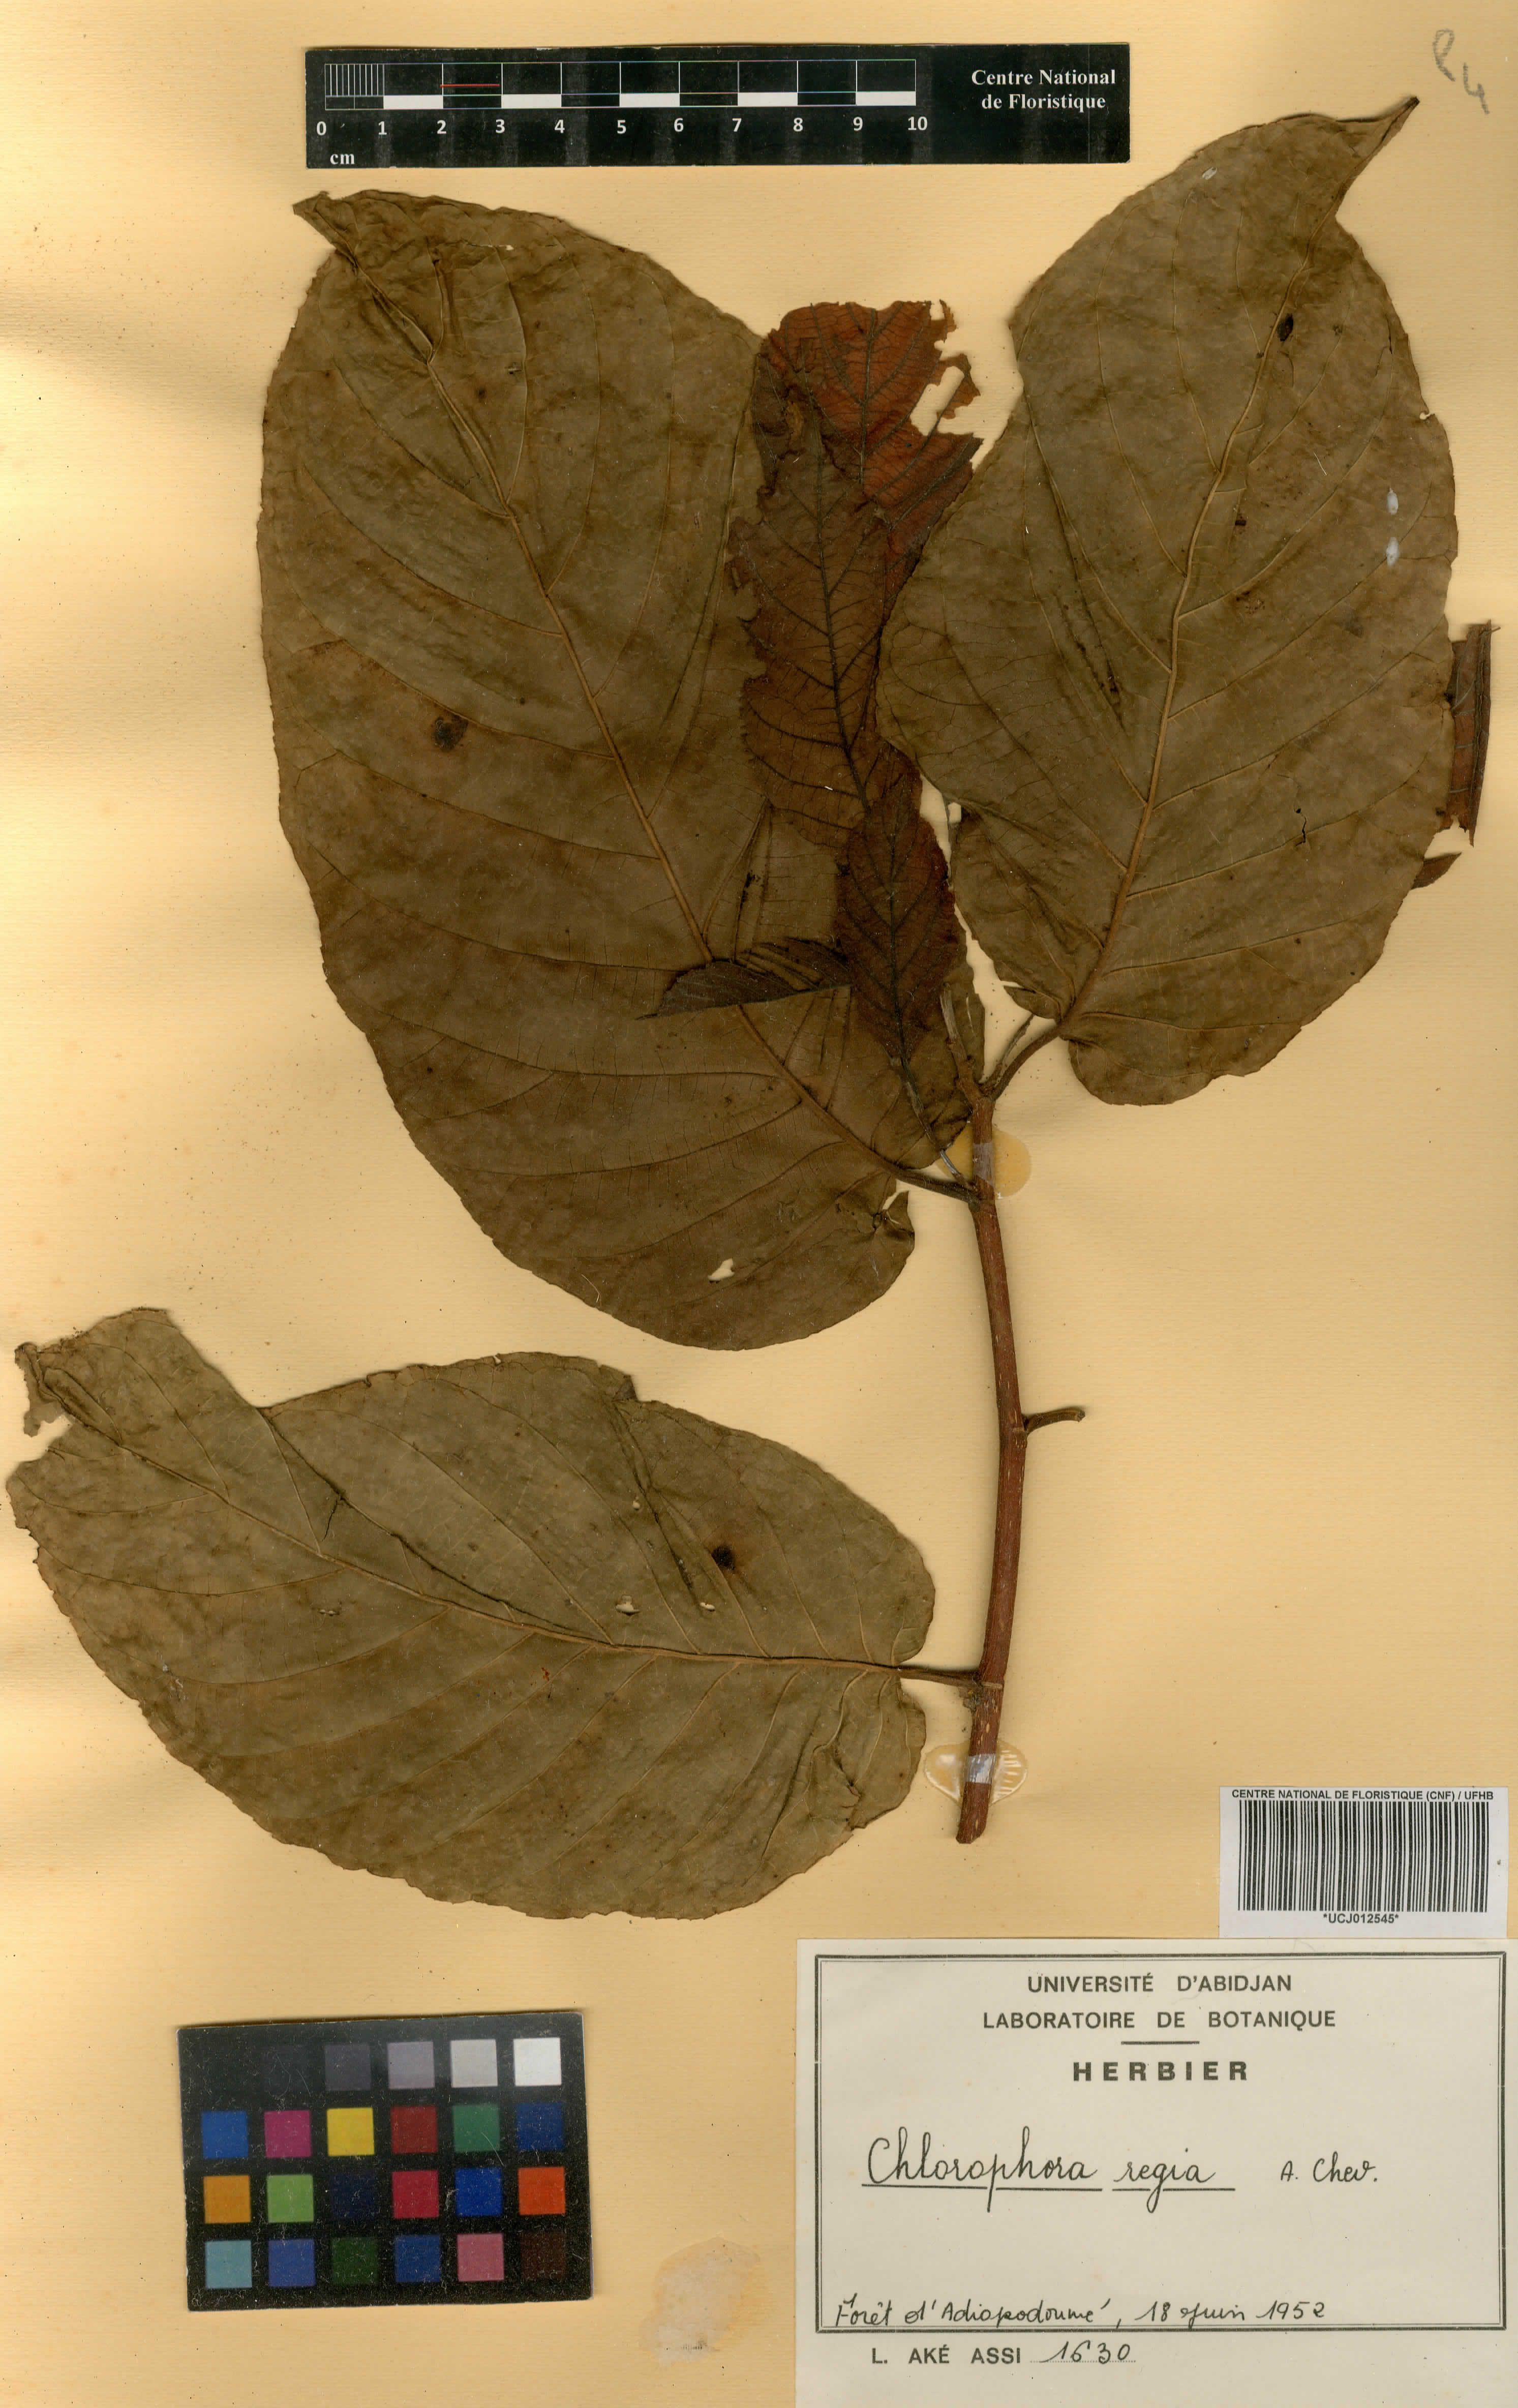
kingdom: Plantae
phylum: Tracheophyta
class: Magnoliopsida
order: Rosales
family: Moraceae
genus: Milicia
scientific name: Milicia regia
